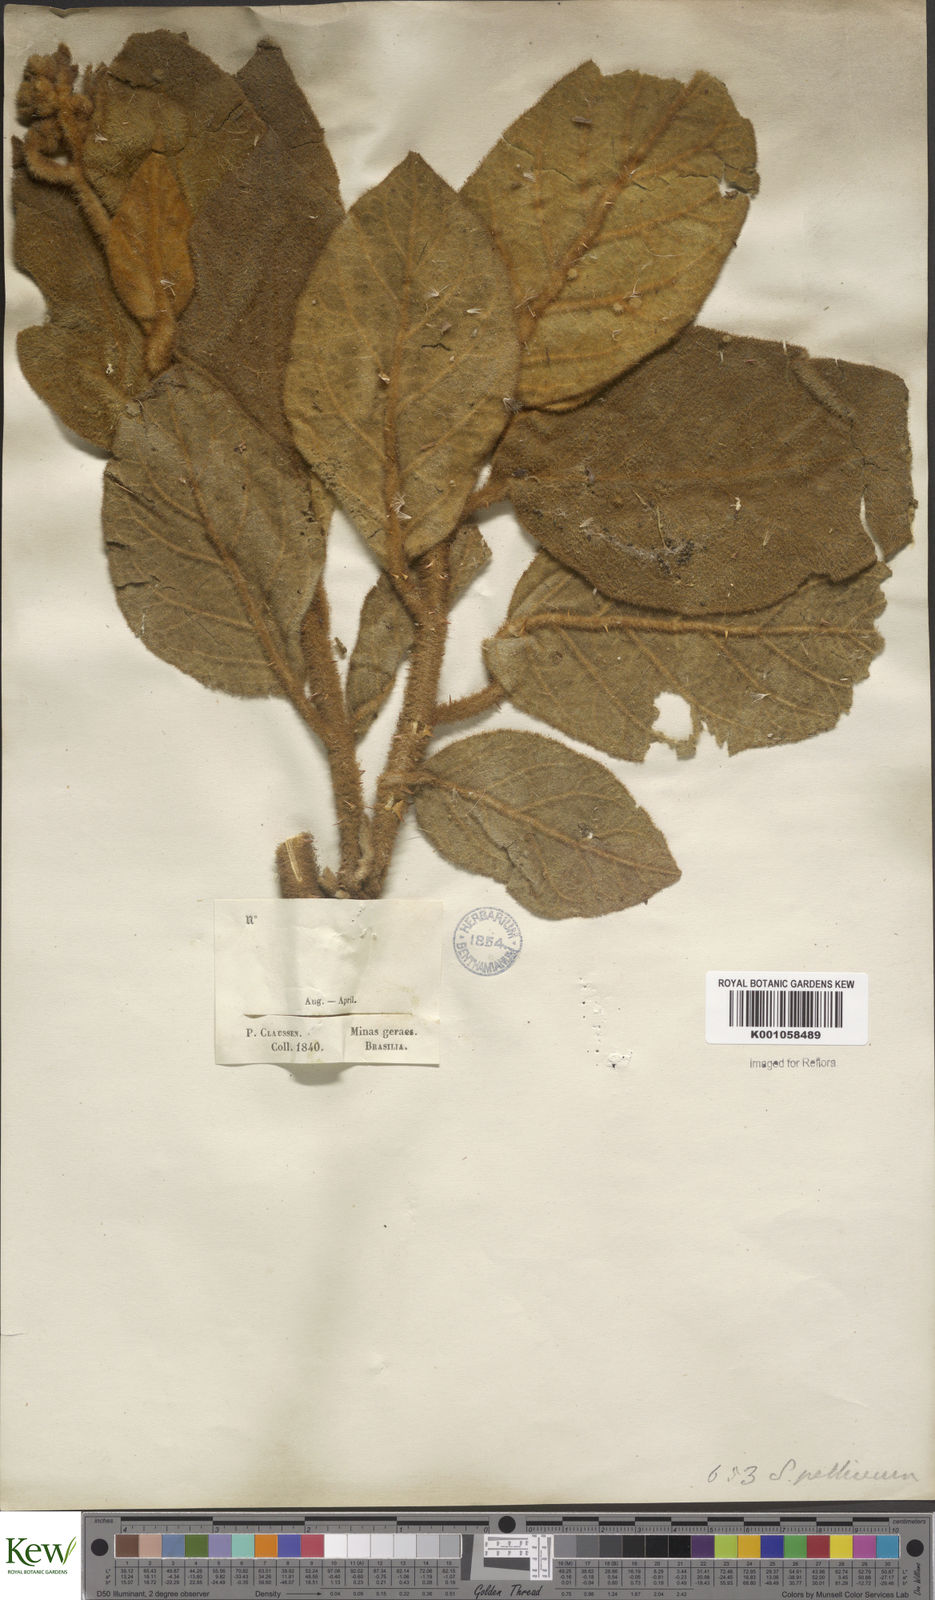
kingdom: Plantae
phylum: Tracheophyta
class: Magnoliopsida
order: Solanales
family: Solanaceae
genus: Solanum
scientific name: Solanum velleum
